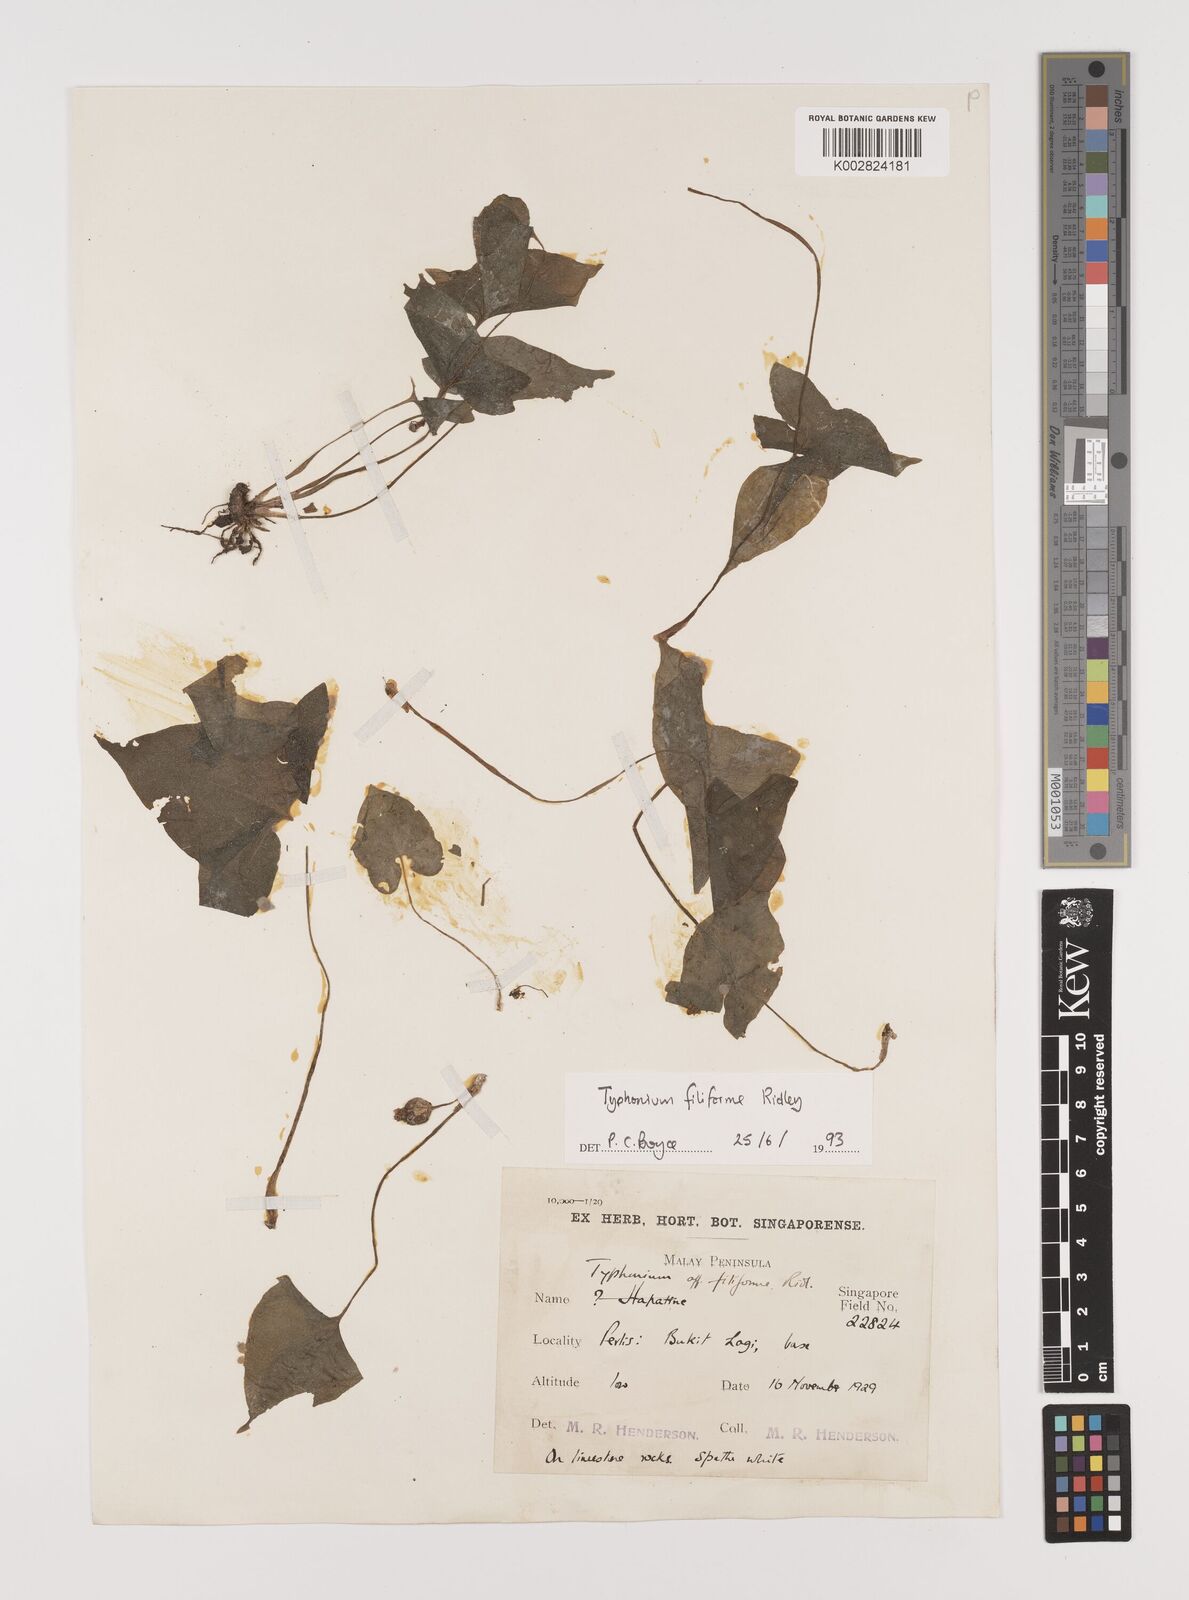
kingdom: Plantae
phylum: Tracheophyta
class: Liliopsida
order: Alismatales
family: Araceae
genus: Typhonium
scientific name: Typhonium filiforme
